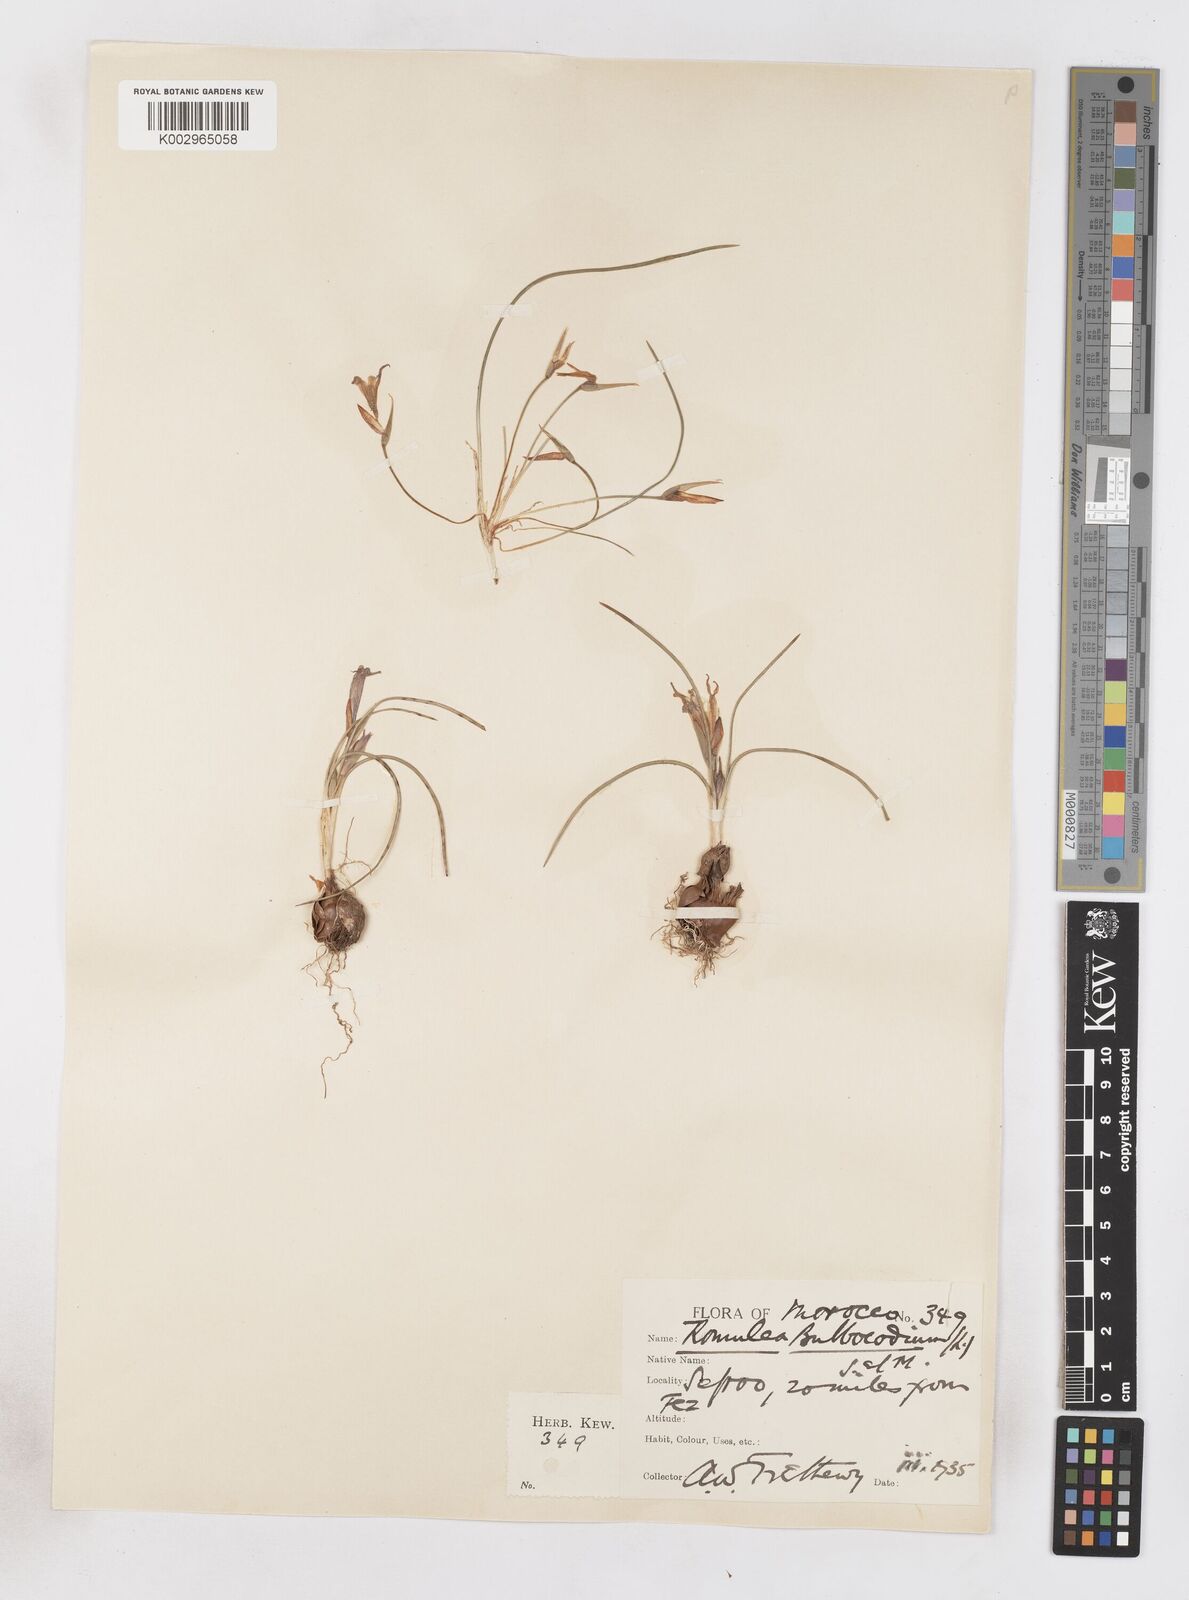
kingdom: Plantae
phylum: Tracheophyta
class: Liliopsida
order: Asparagales
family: Iridaceae
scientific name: Iridaceae
